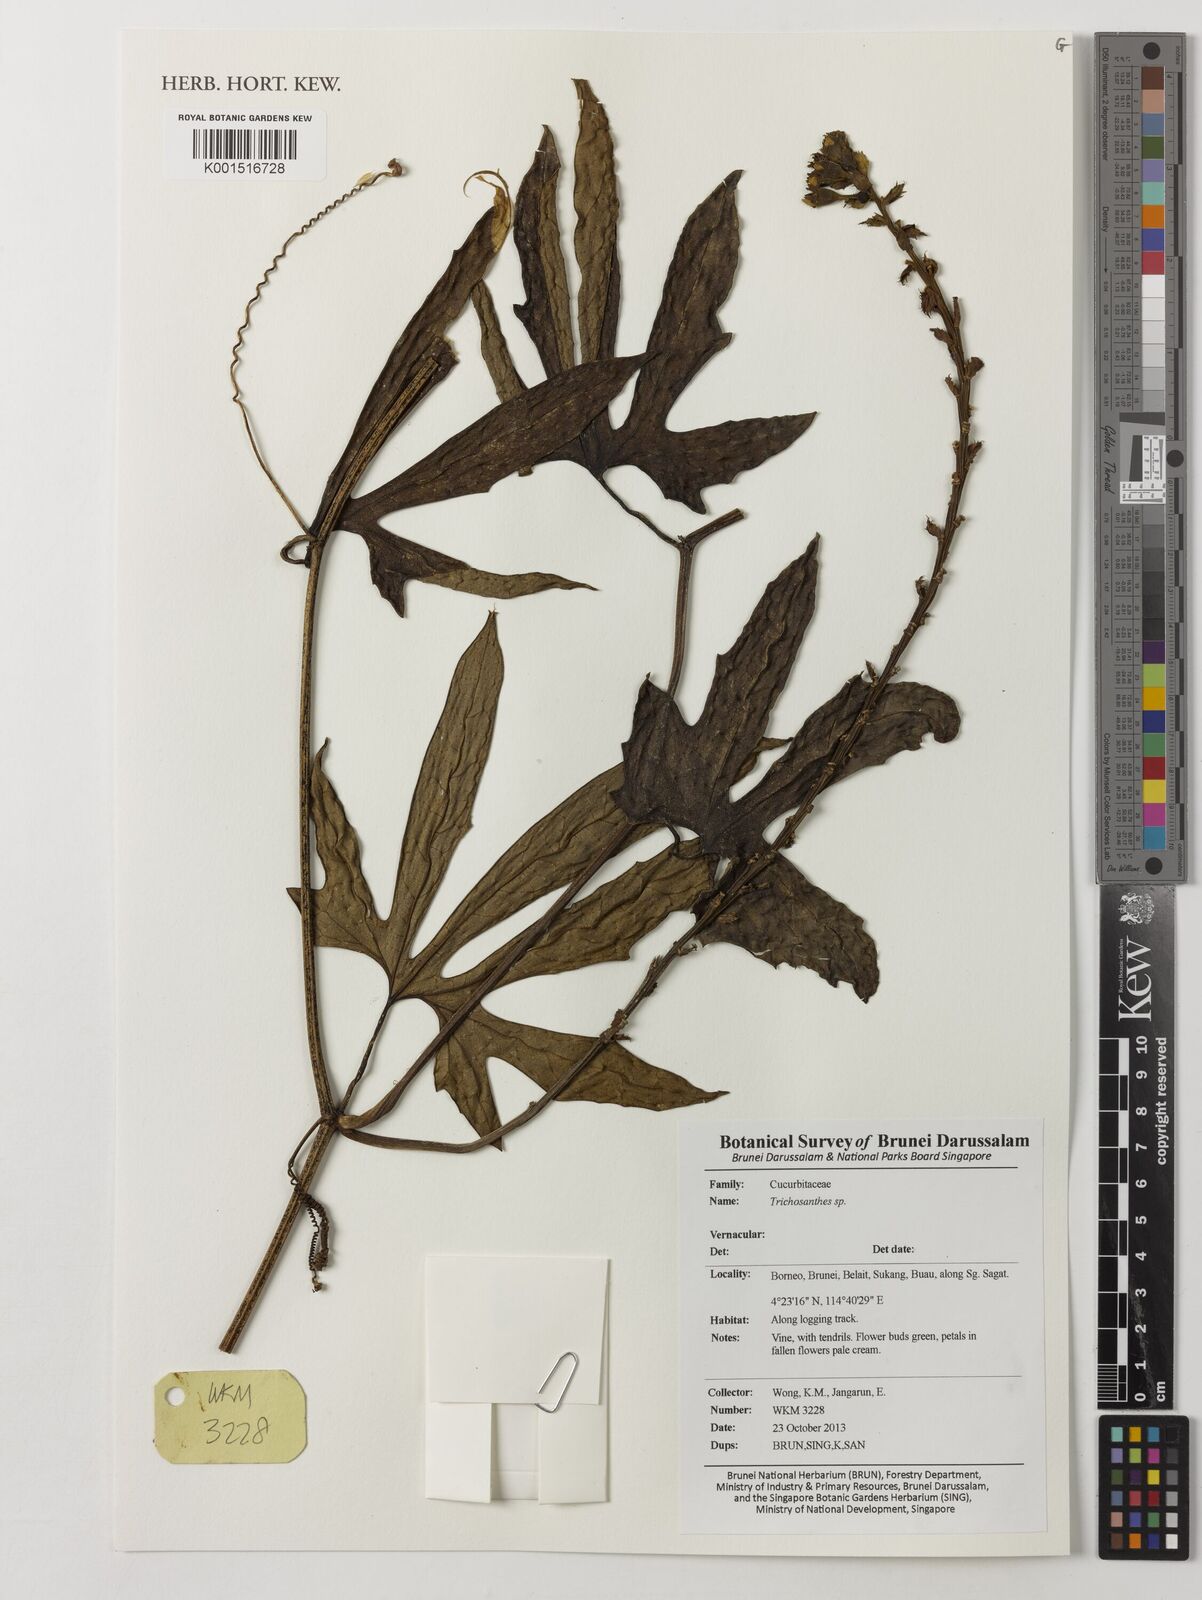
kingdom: Plantae
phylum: Tracheophyta
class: Magnoliopsida
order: Cucurbitales
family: Cucurbitaceae
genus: Trichosanthes
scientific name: Trichosanthes
